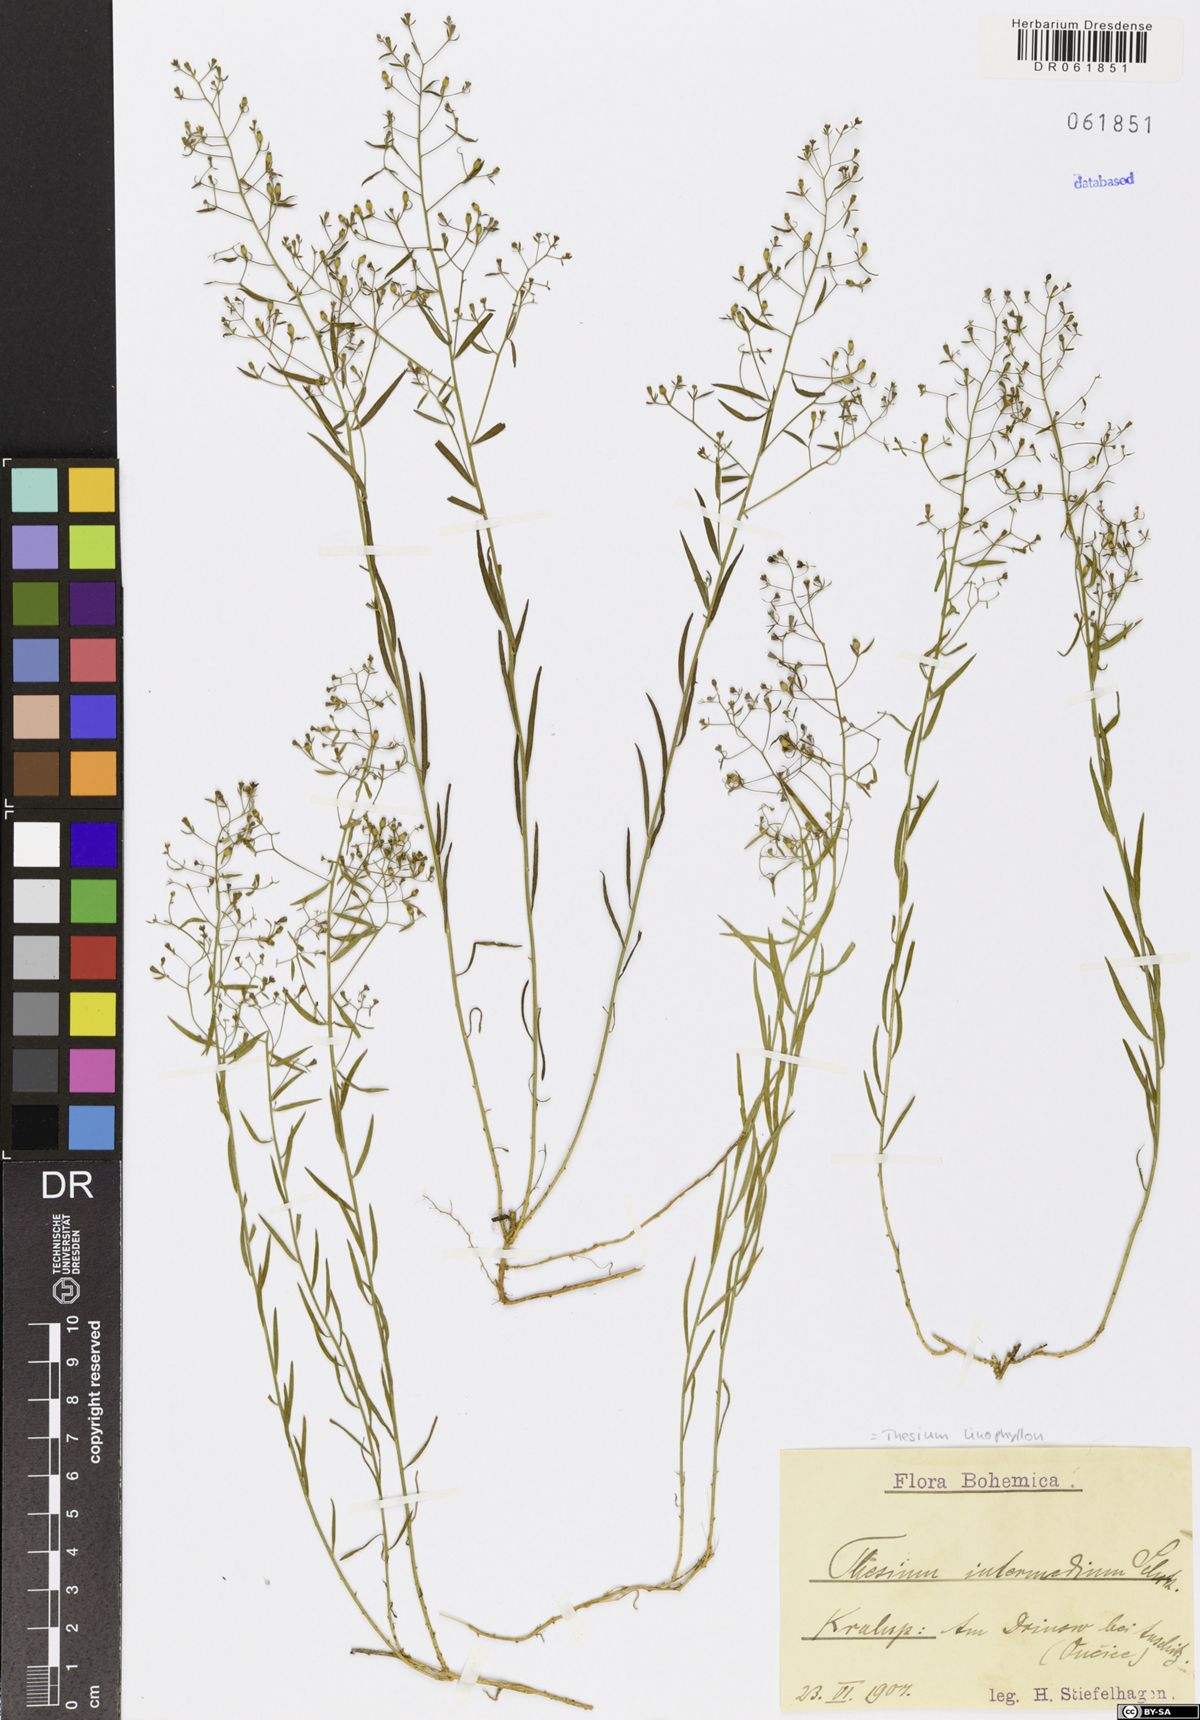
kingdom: Plantae
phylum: Tracheophyta
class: Magnoliopsida
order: Santalales
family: Thesiaceae
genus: Thesium
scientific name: Thesium linophyllon
